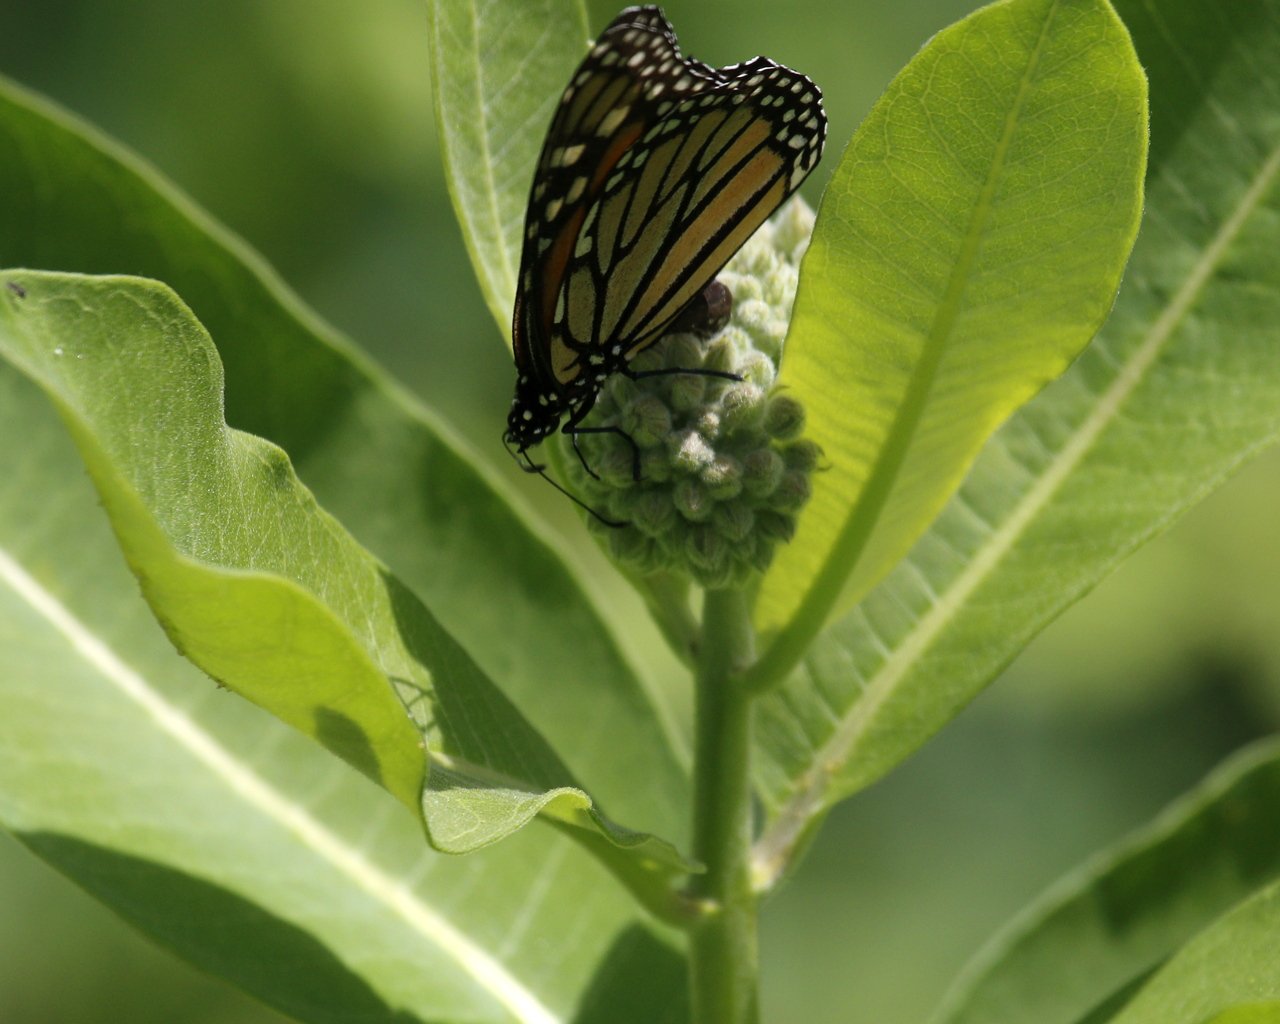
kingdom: Animalia
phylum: Arthropoda
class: Insecta
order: Lepidoptera
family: Nymphalidae
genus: Danaus
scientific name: Danaus plexippus
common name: Monarch
